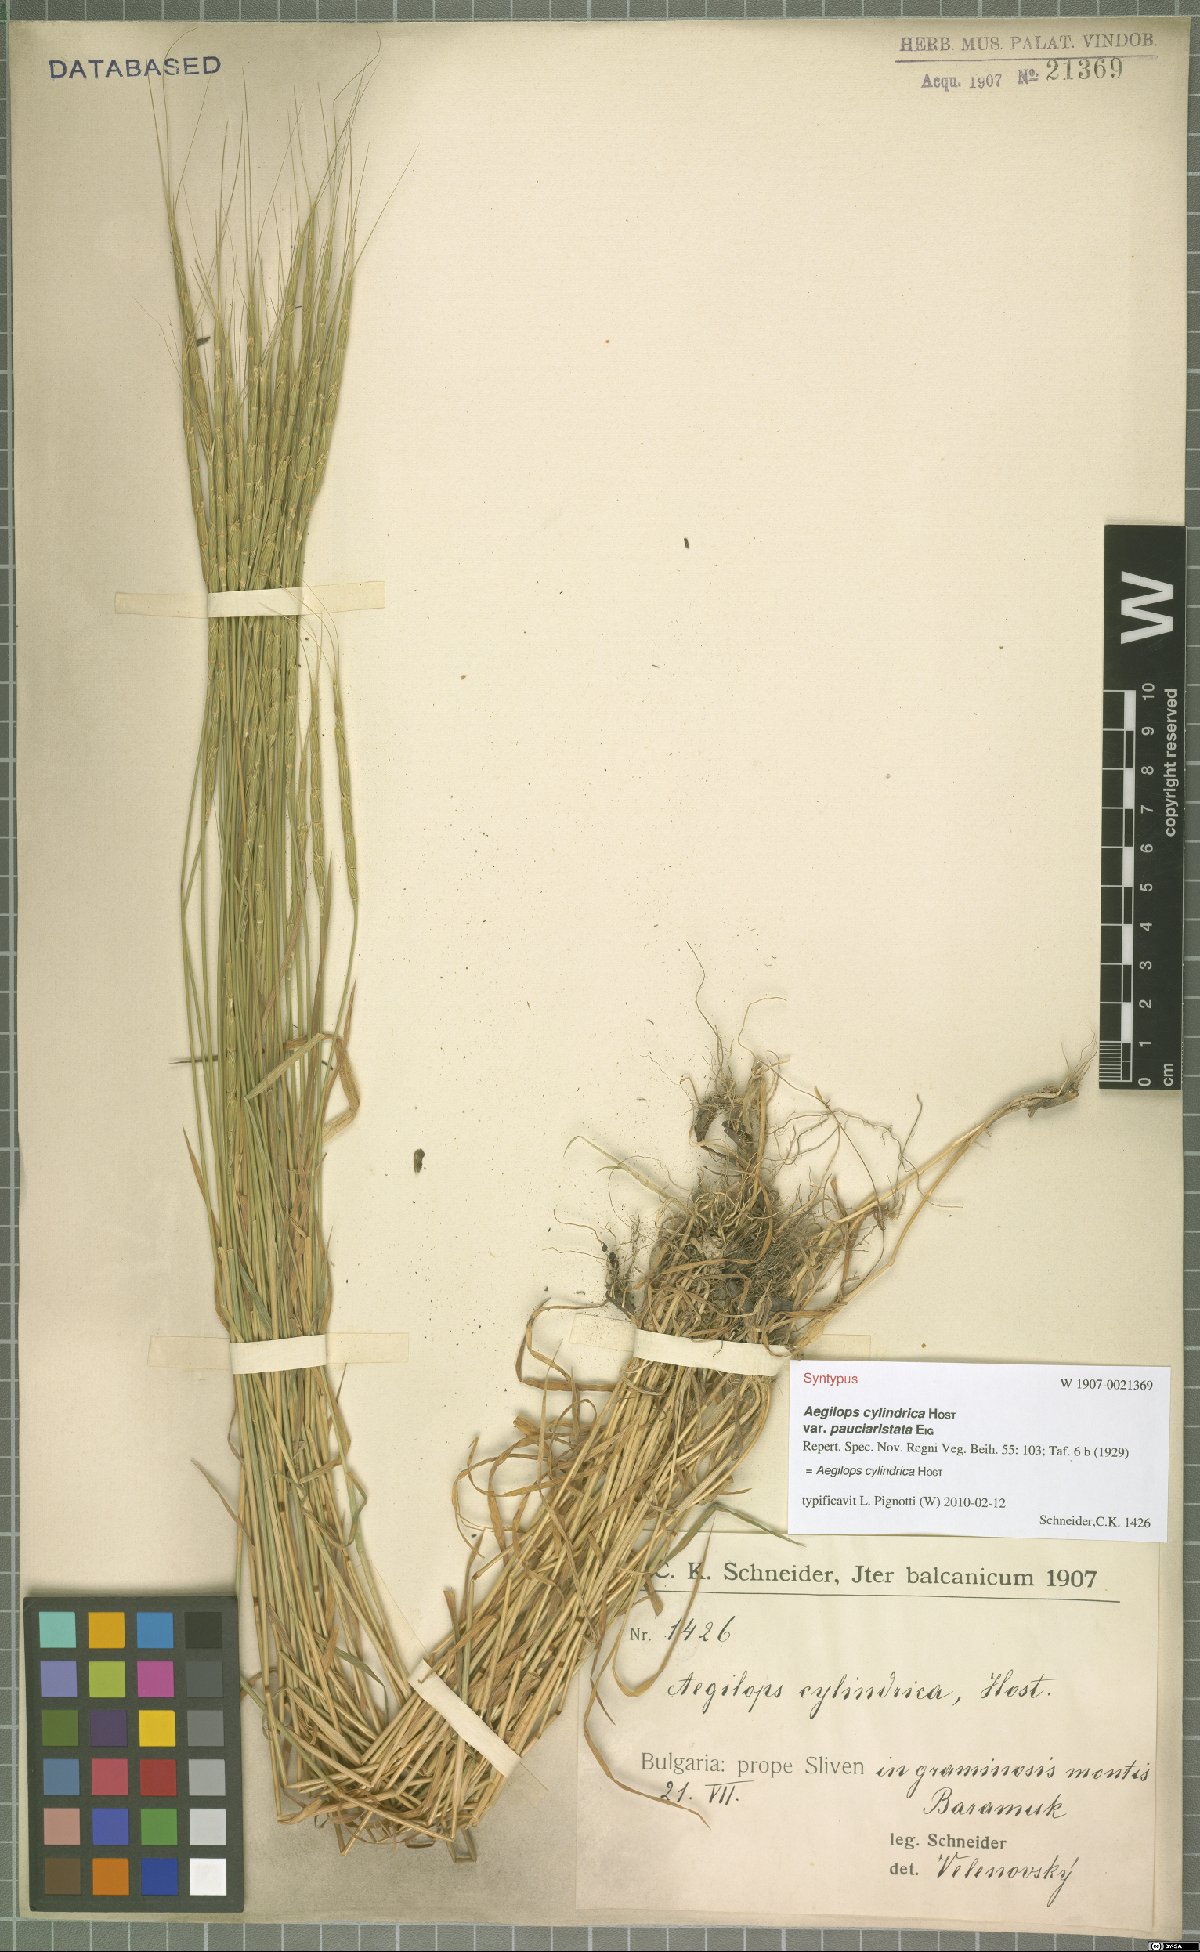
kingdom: Plantae
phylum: Tracheophyta
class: Liliopsida
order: Poales
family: Poaceae
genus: Aegilops
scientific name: Aegilops cylindrica
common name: Jointed goatgrass
